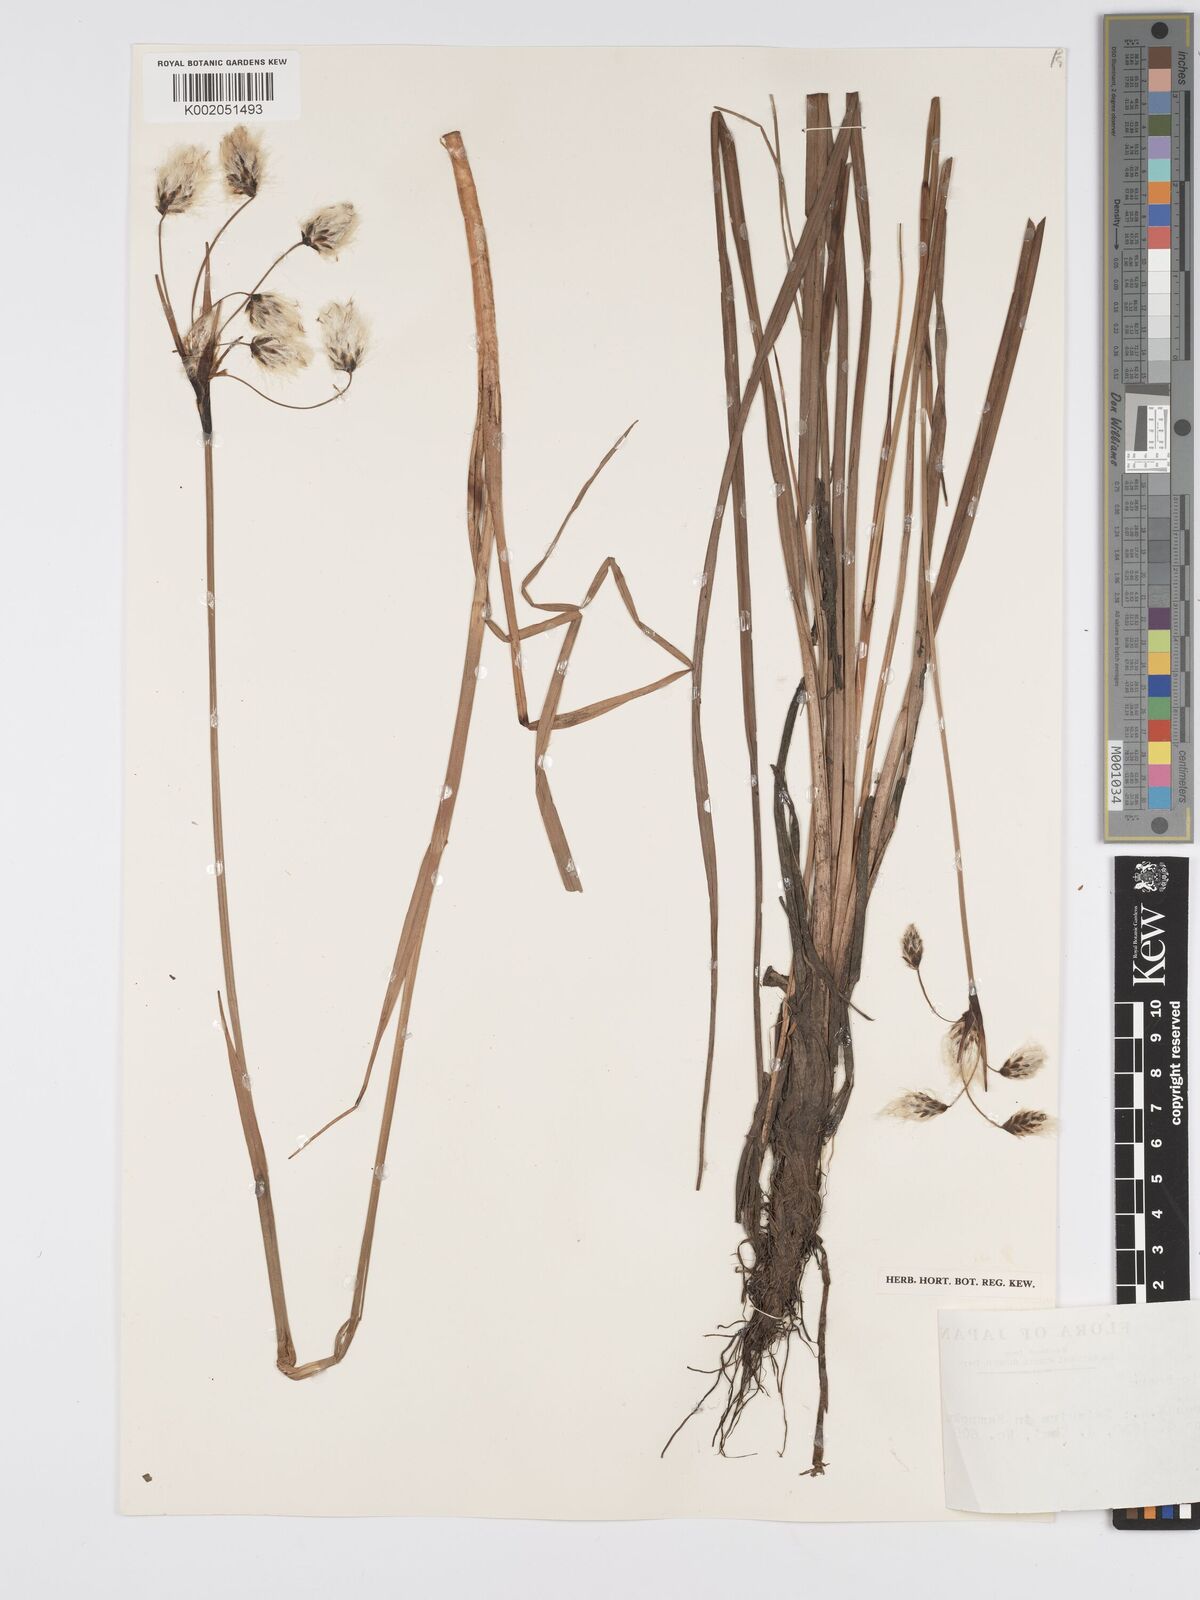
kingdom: Plantae
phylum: Tracheophyta
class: Liliopsida
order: Poales
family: Cyperaceae
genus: Eriophorum
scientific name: Eriophorum
